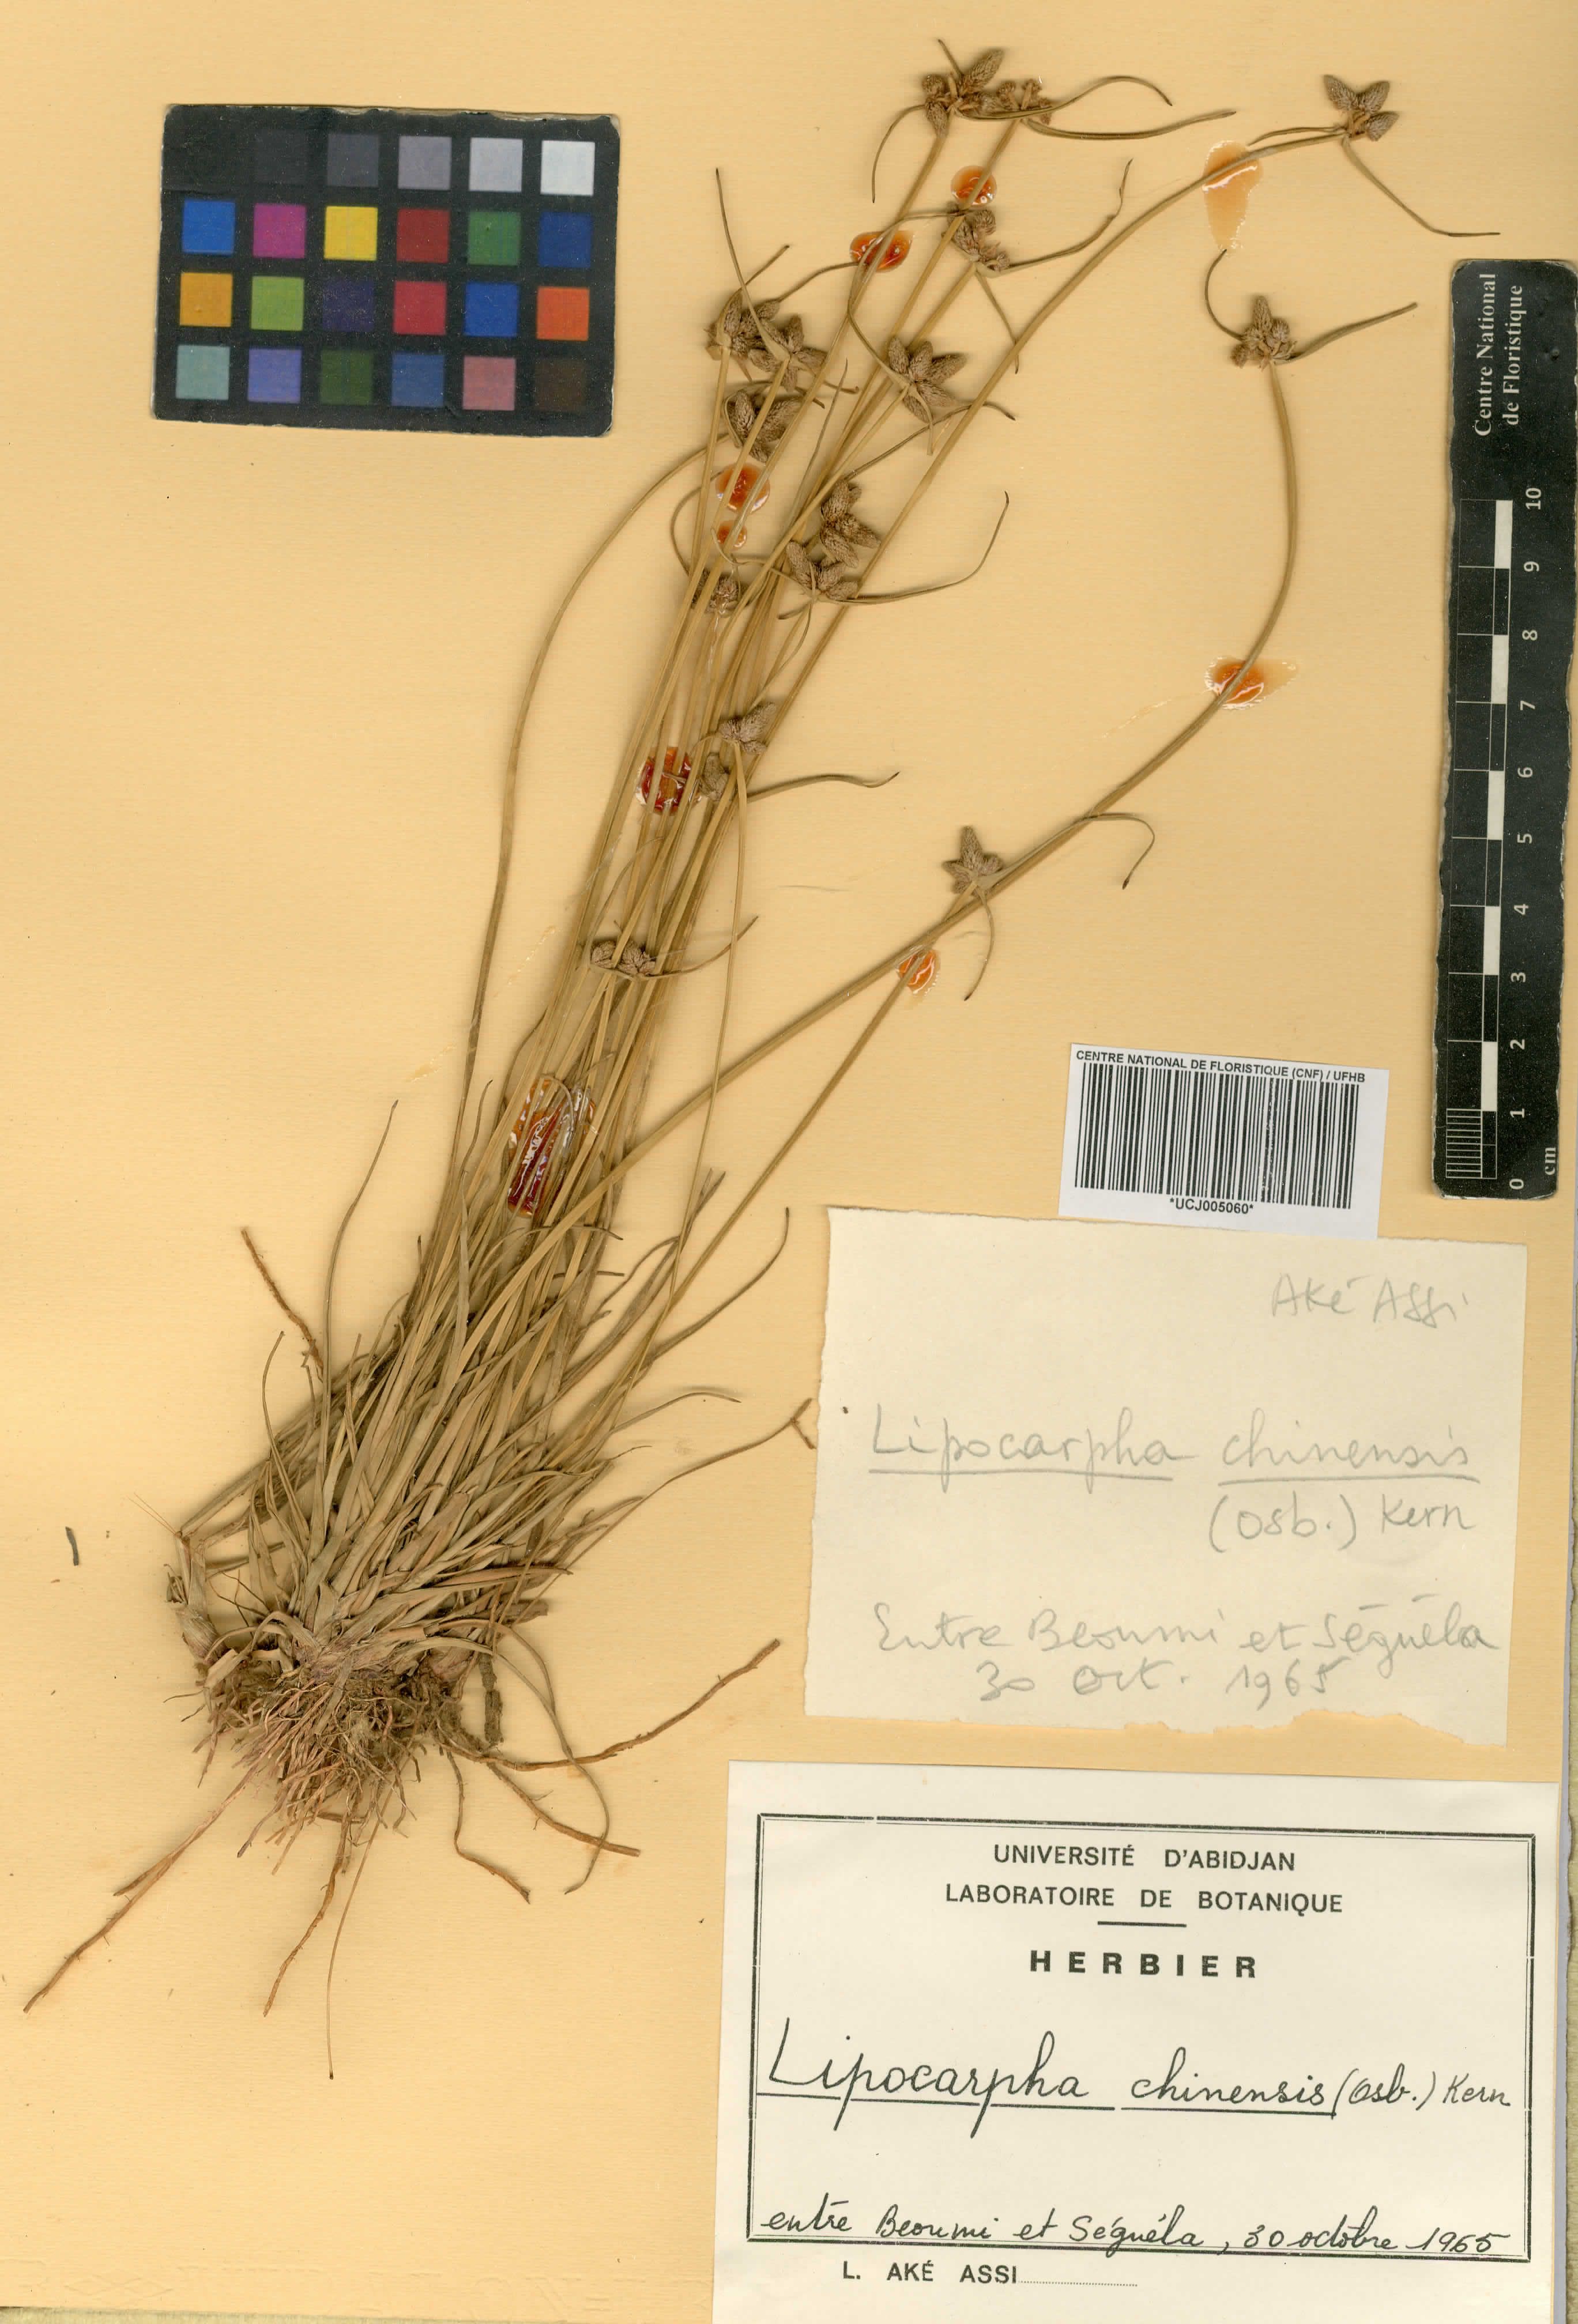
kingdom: Plantae
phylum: Tracheophyta
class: Liliopsida
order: Poales
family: Cyperaceae
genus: Cyperus
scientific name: Cyperus albescens
